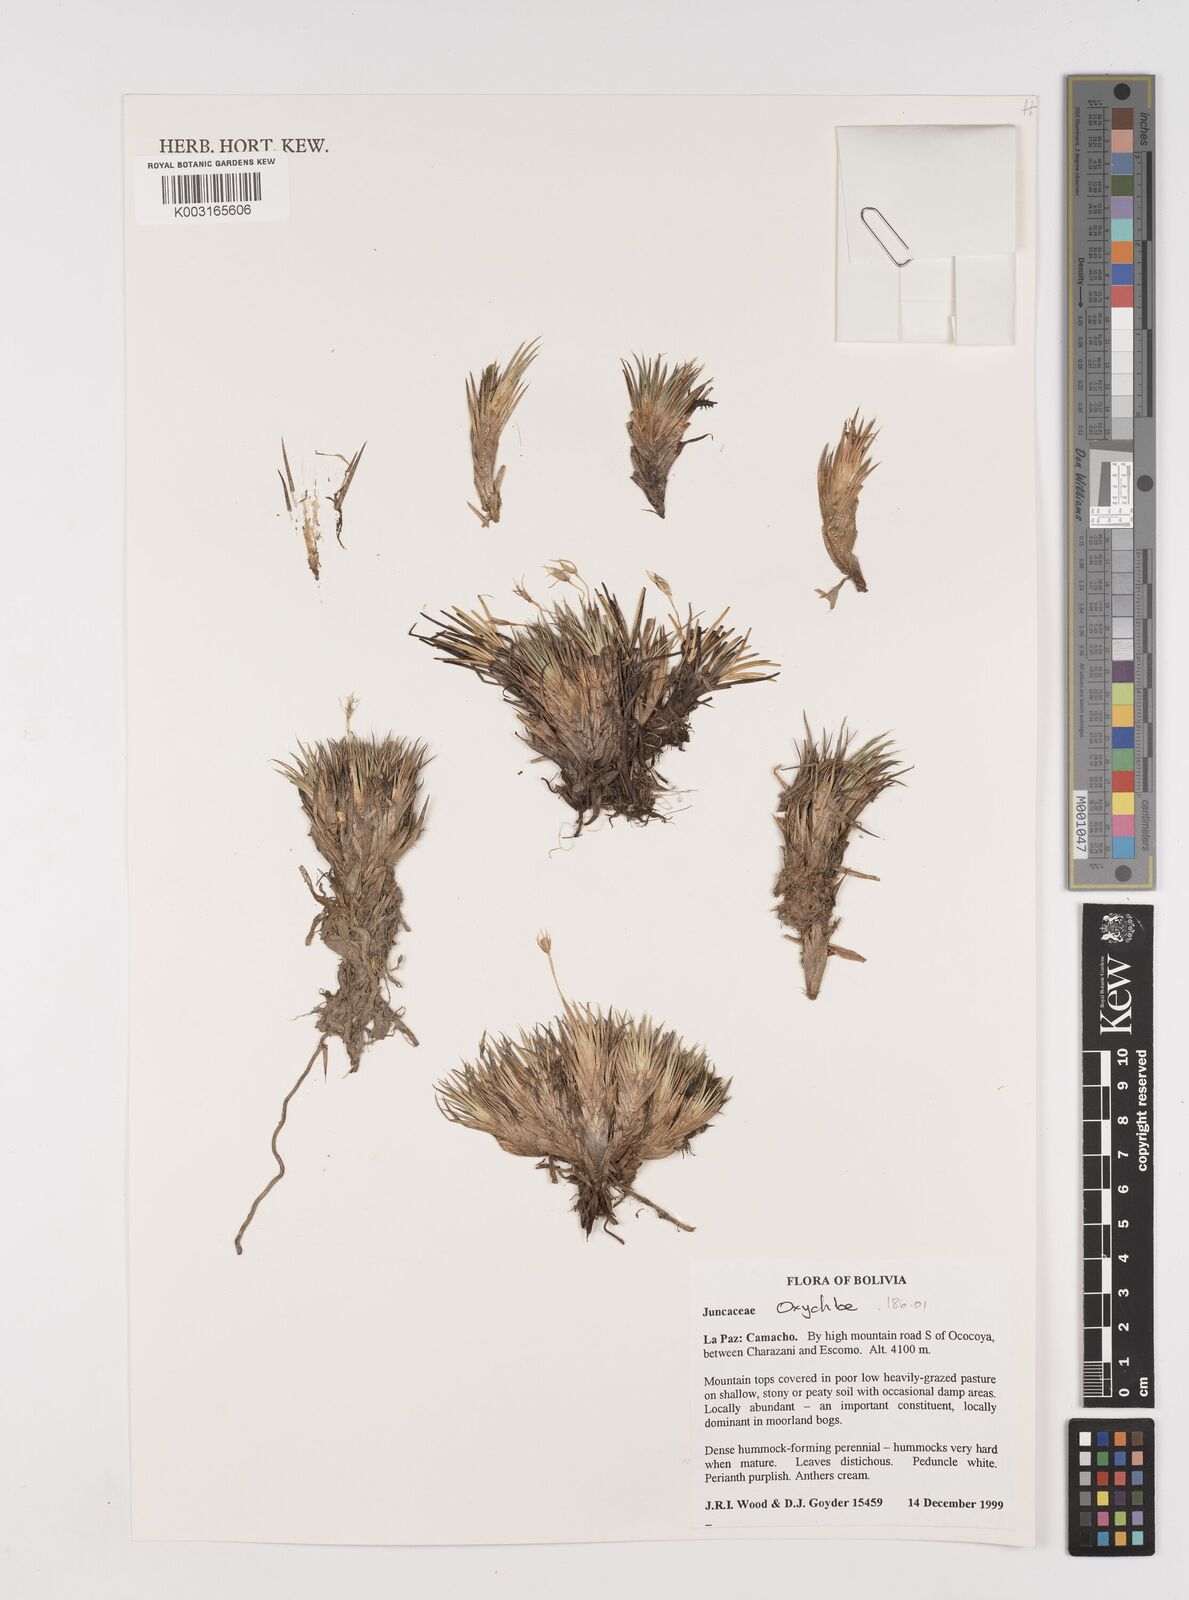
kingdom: Plantae
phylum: Tracheophyta
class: Liliopsida
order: Poales
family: Juncaceae
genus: Oxychloe
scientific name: Oxychloe
